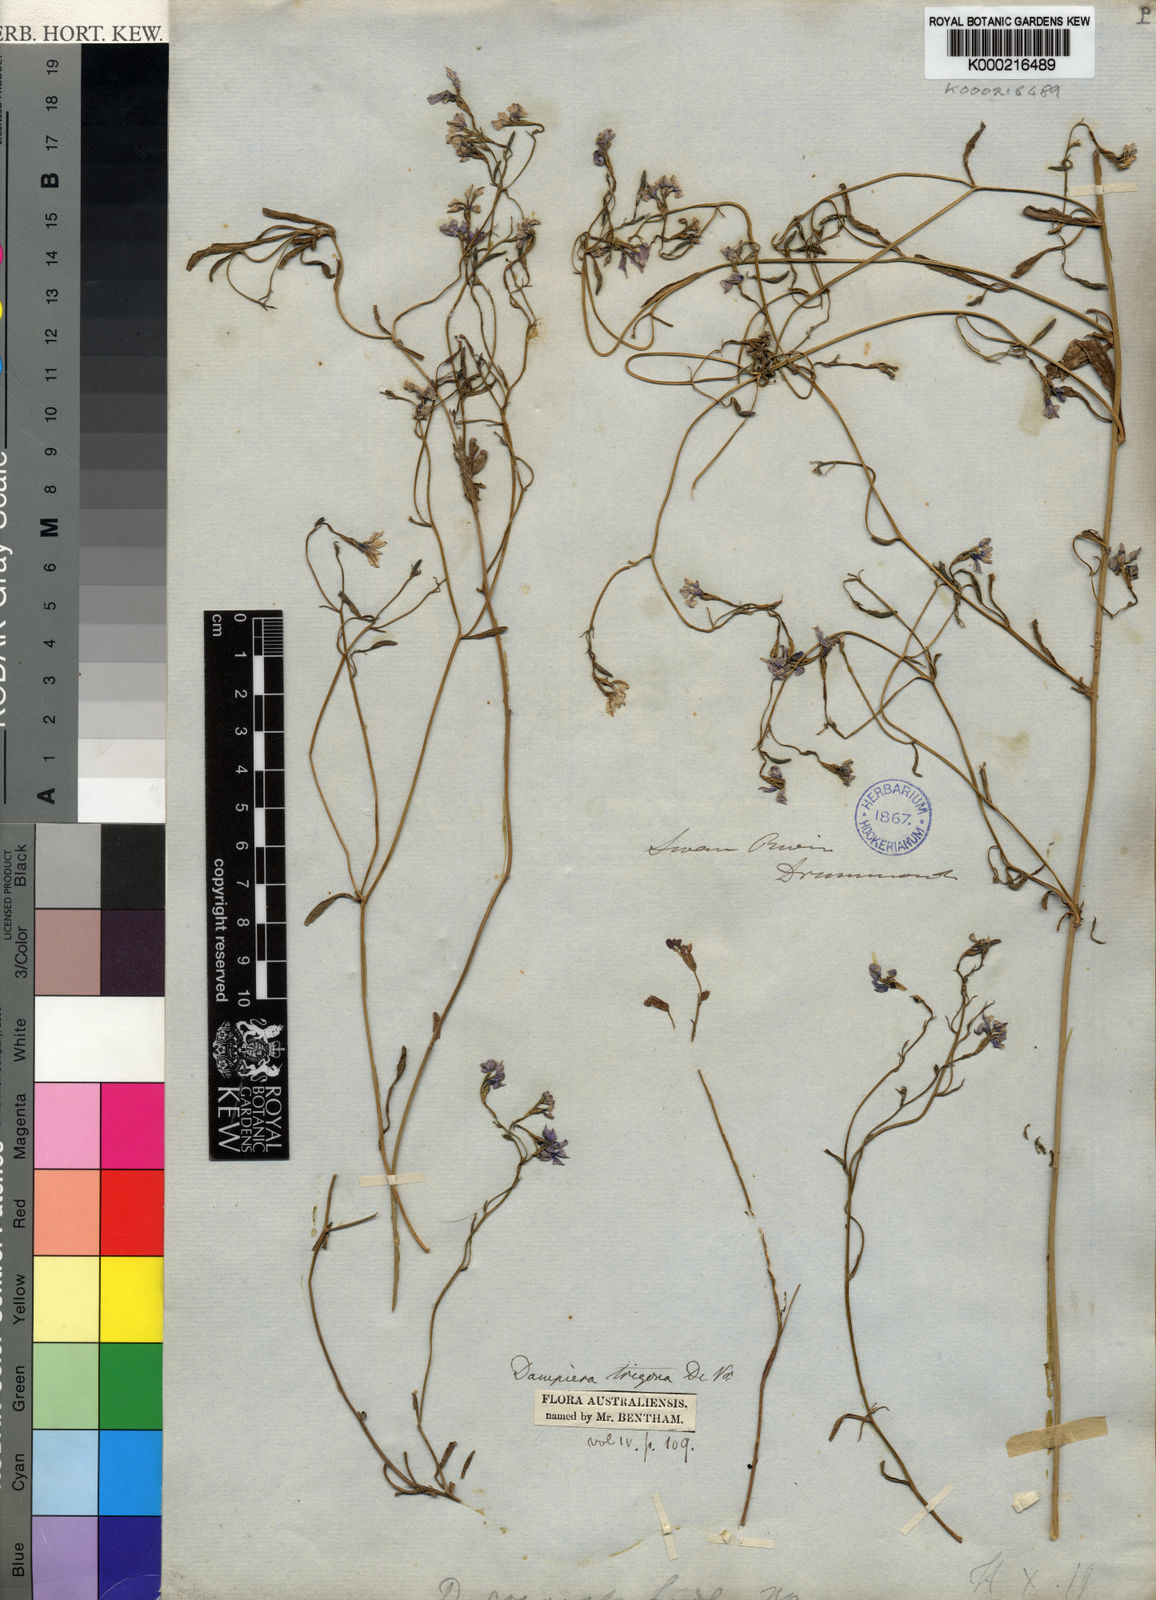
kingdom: Plantae
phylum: Tracheophyta
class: Magnoliopsida
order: Asterales
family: Goodeniaceae
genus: Dampiera
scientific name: Dampiera trigona
